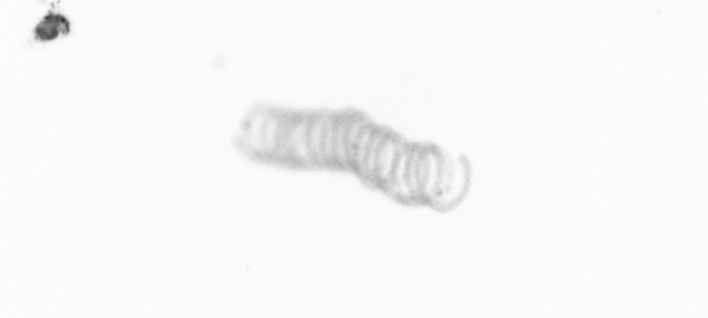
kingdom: Chromista
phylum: Ochrophyta
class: Bacillariophyceae
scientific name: Bacillariophyceae
